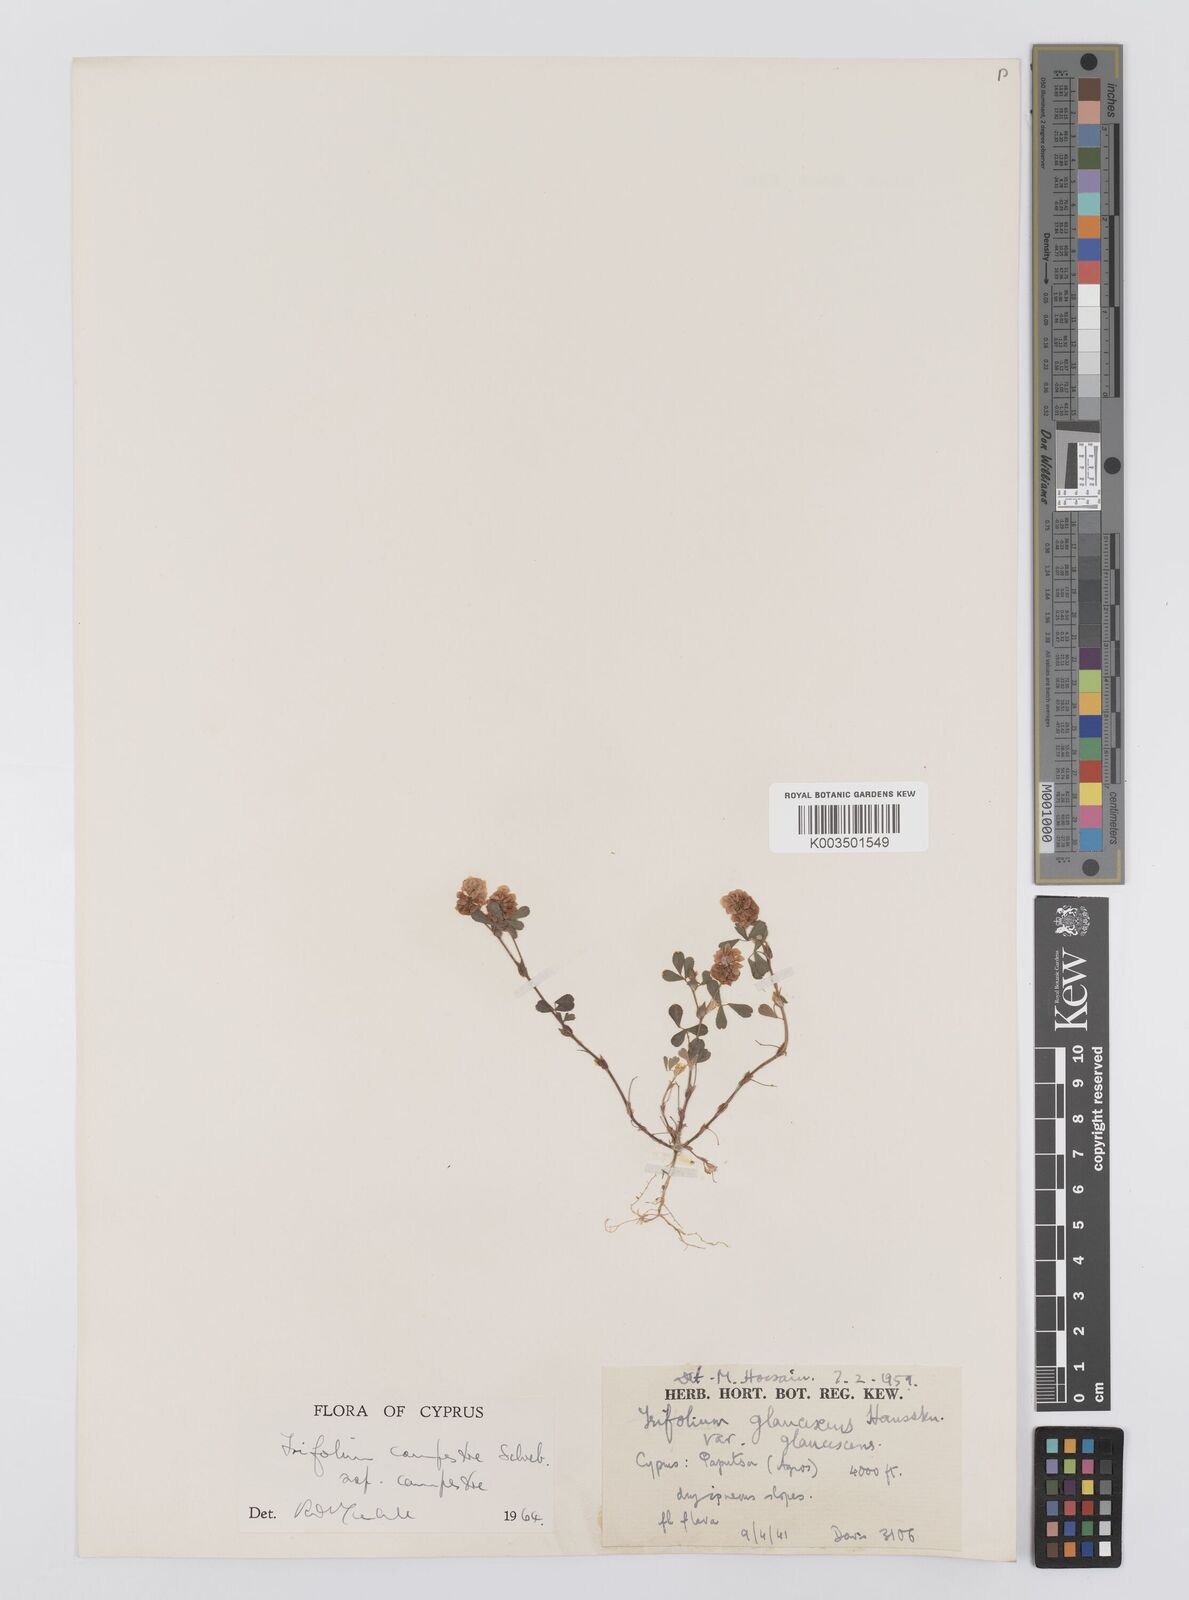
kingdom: Plantae
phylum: Tracheophyta
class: Magnoliopsida
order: Fabales
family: Fabaceae
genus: Trifolium
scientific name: Trifolium campestre
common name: Field clover
